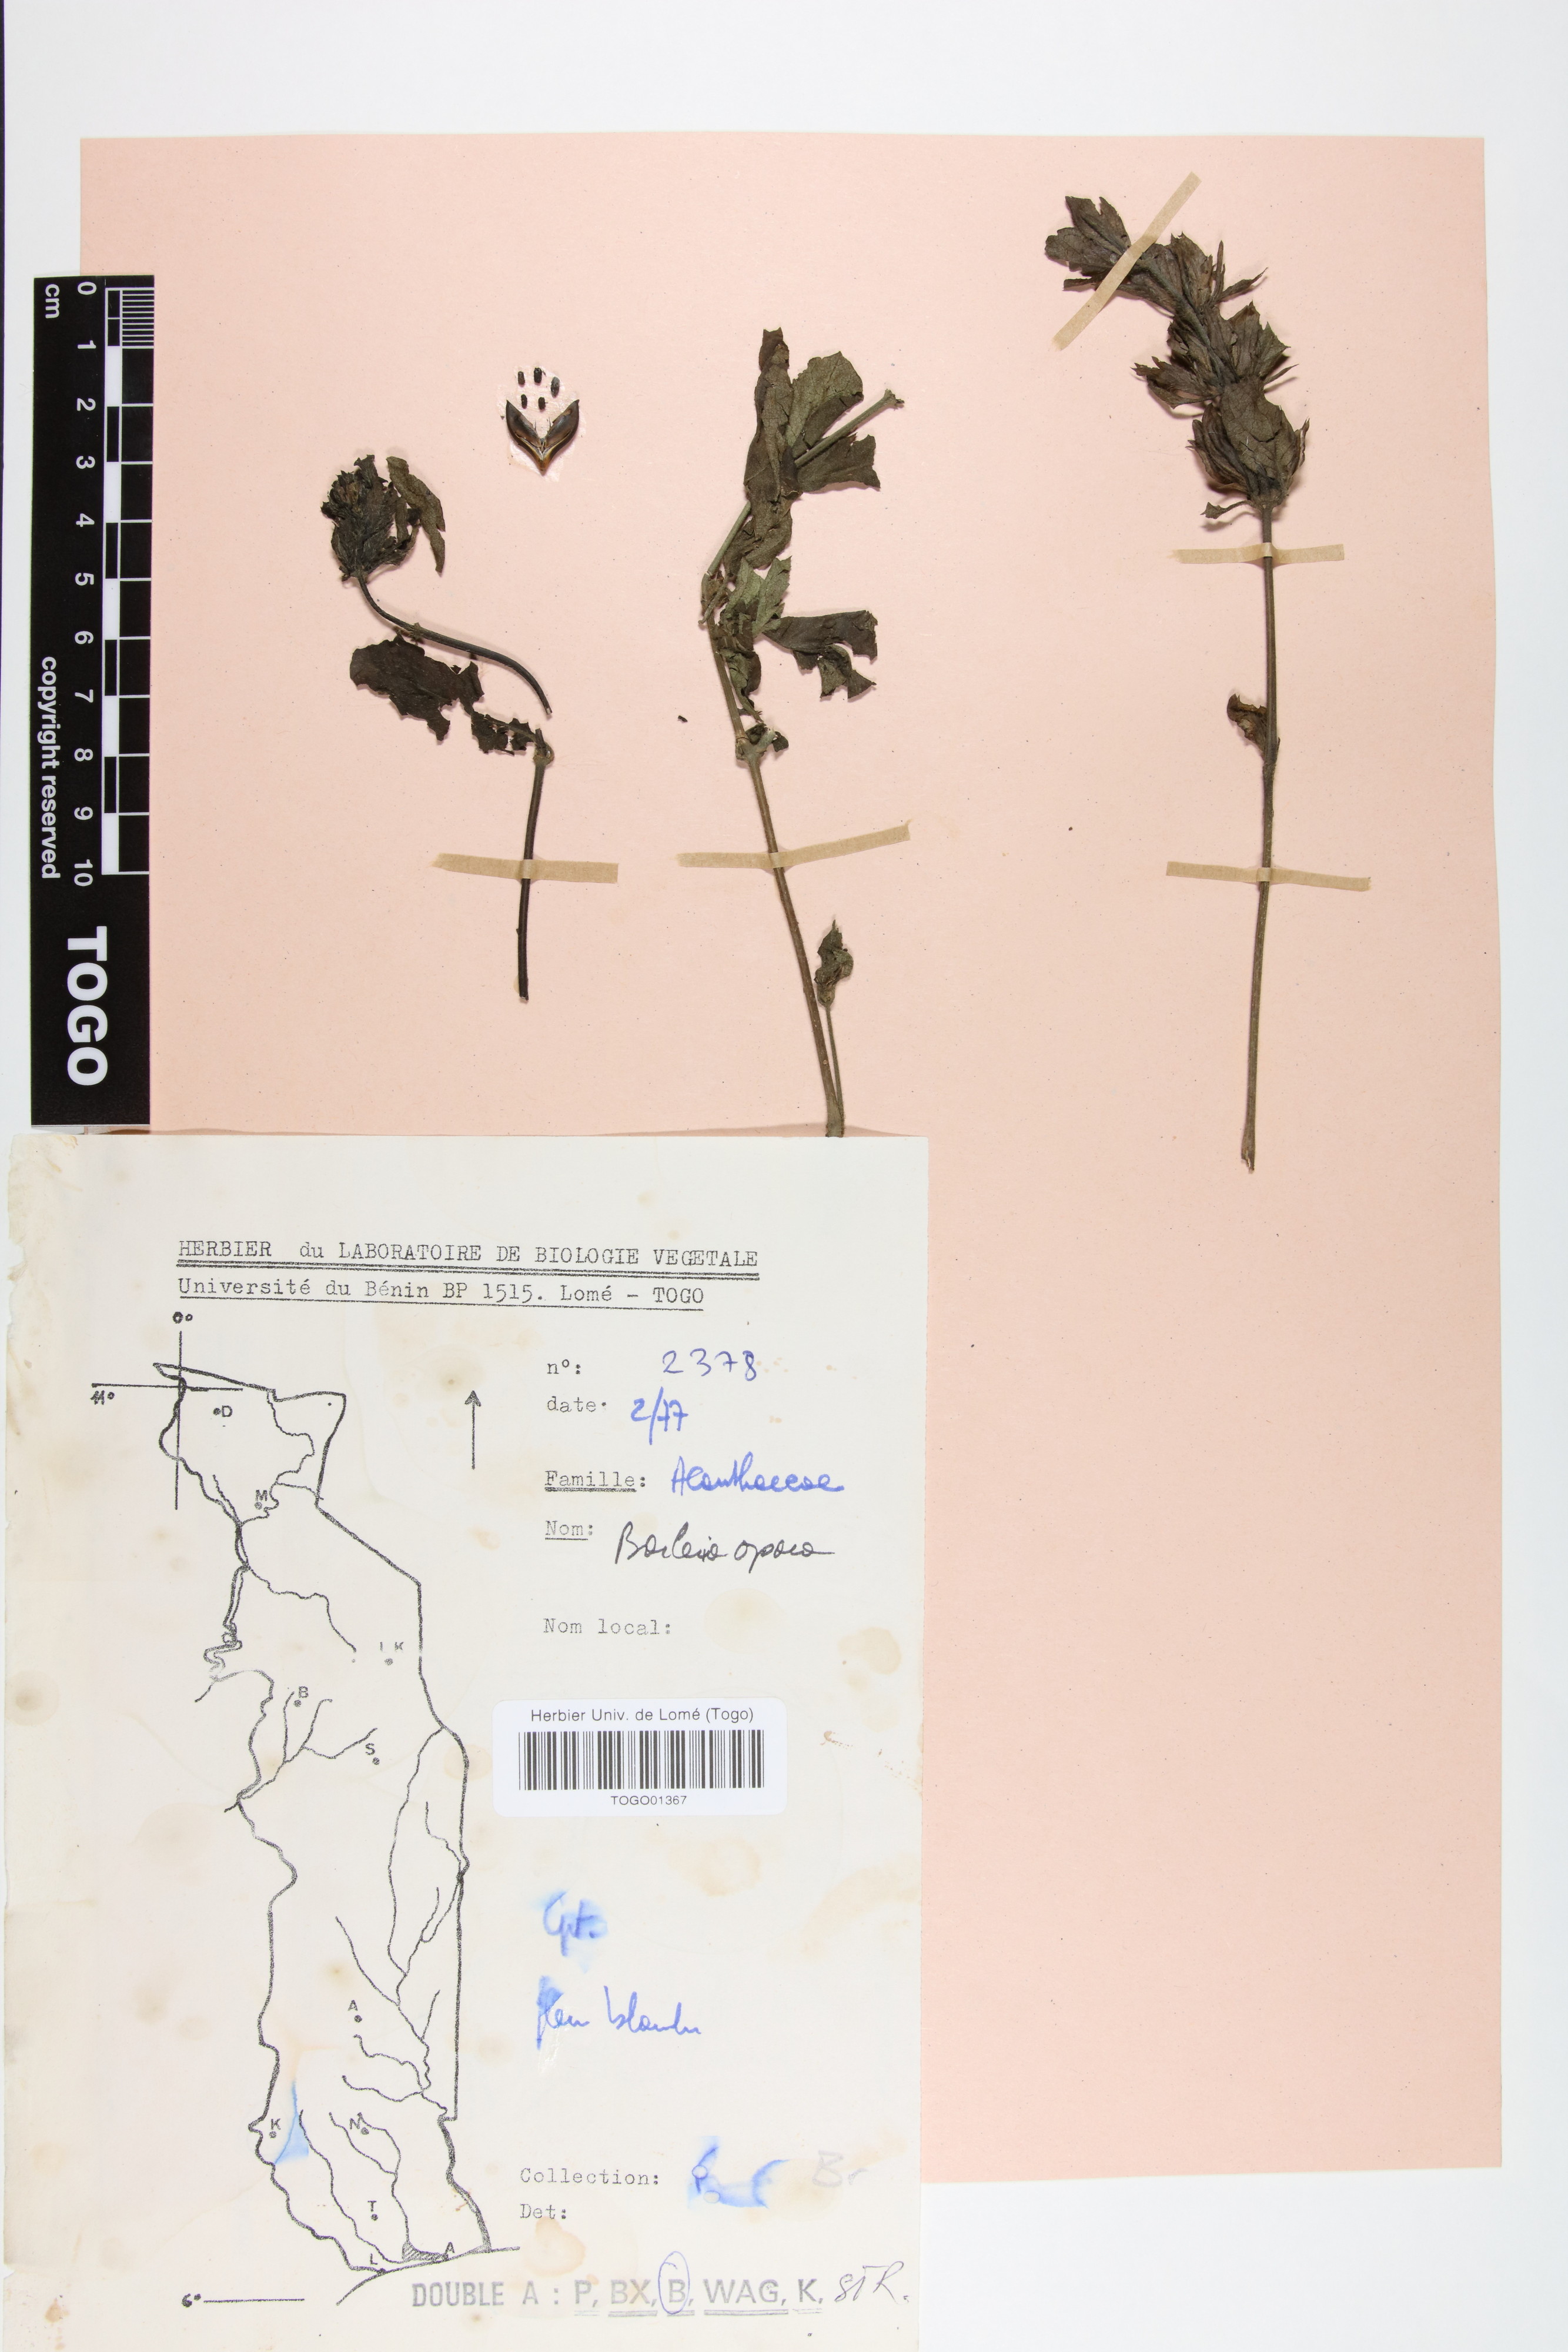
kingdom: Plantae
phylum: Tracheophyta
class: Magnoliopsida
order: Lamiales
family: Acanthaceae
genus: Barleria
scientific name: Barleria opaca
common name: Kwahu
